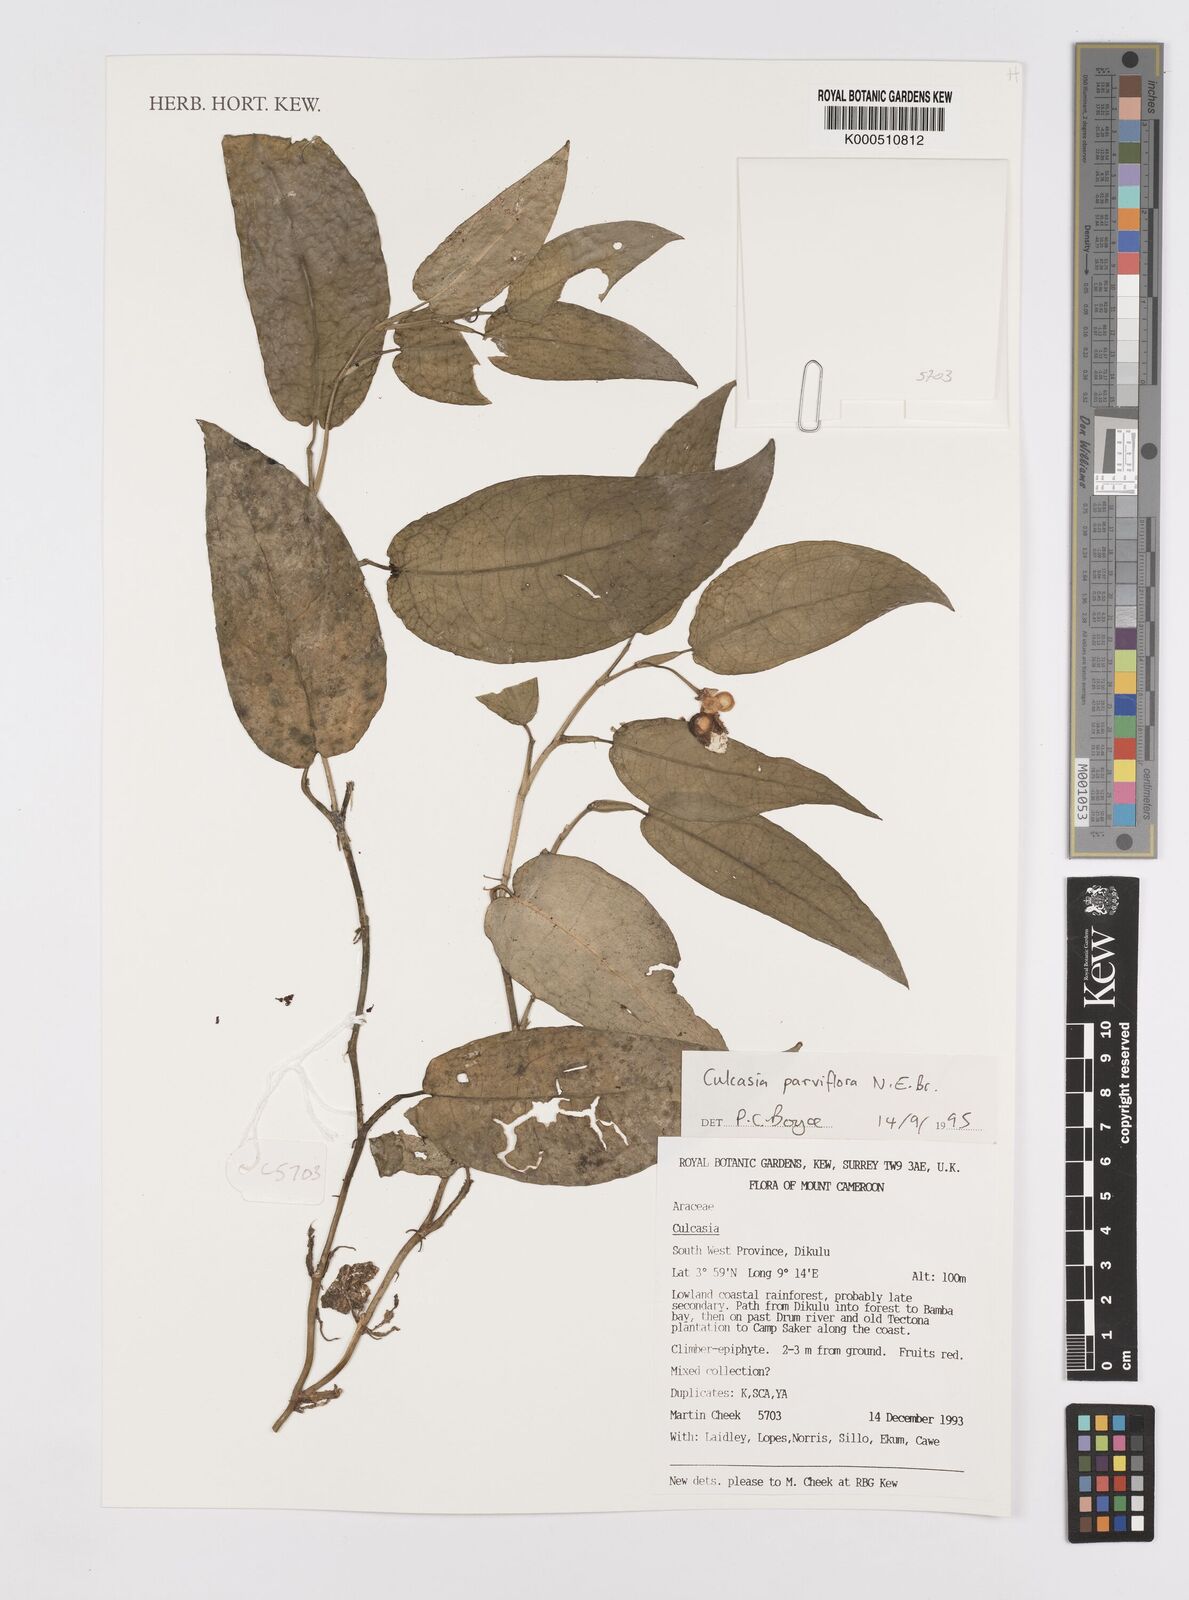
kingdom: Plantae
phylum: Tracheophyta
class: Liliopsida
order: Alismatales
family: Araceae
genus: Culcasia
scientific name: Culcasia parviflora
